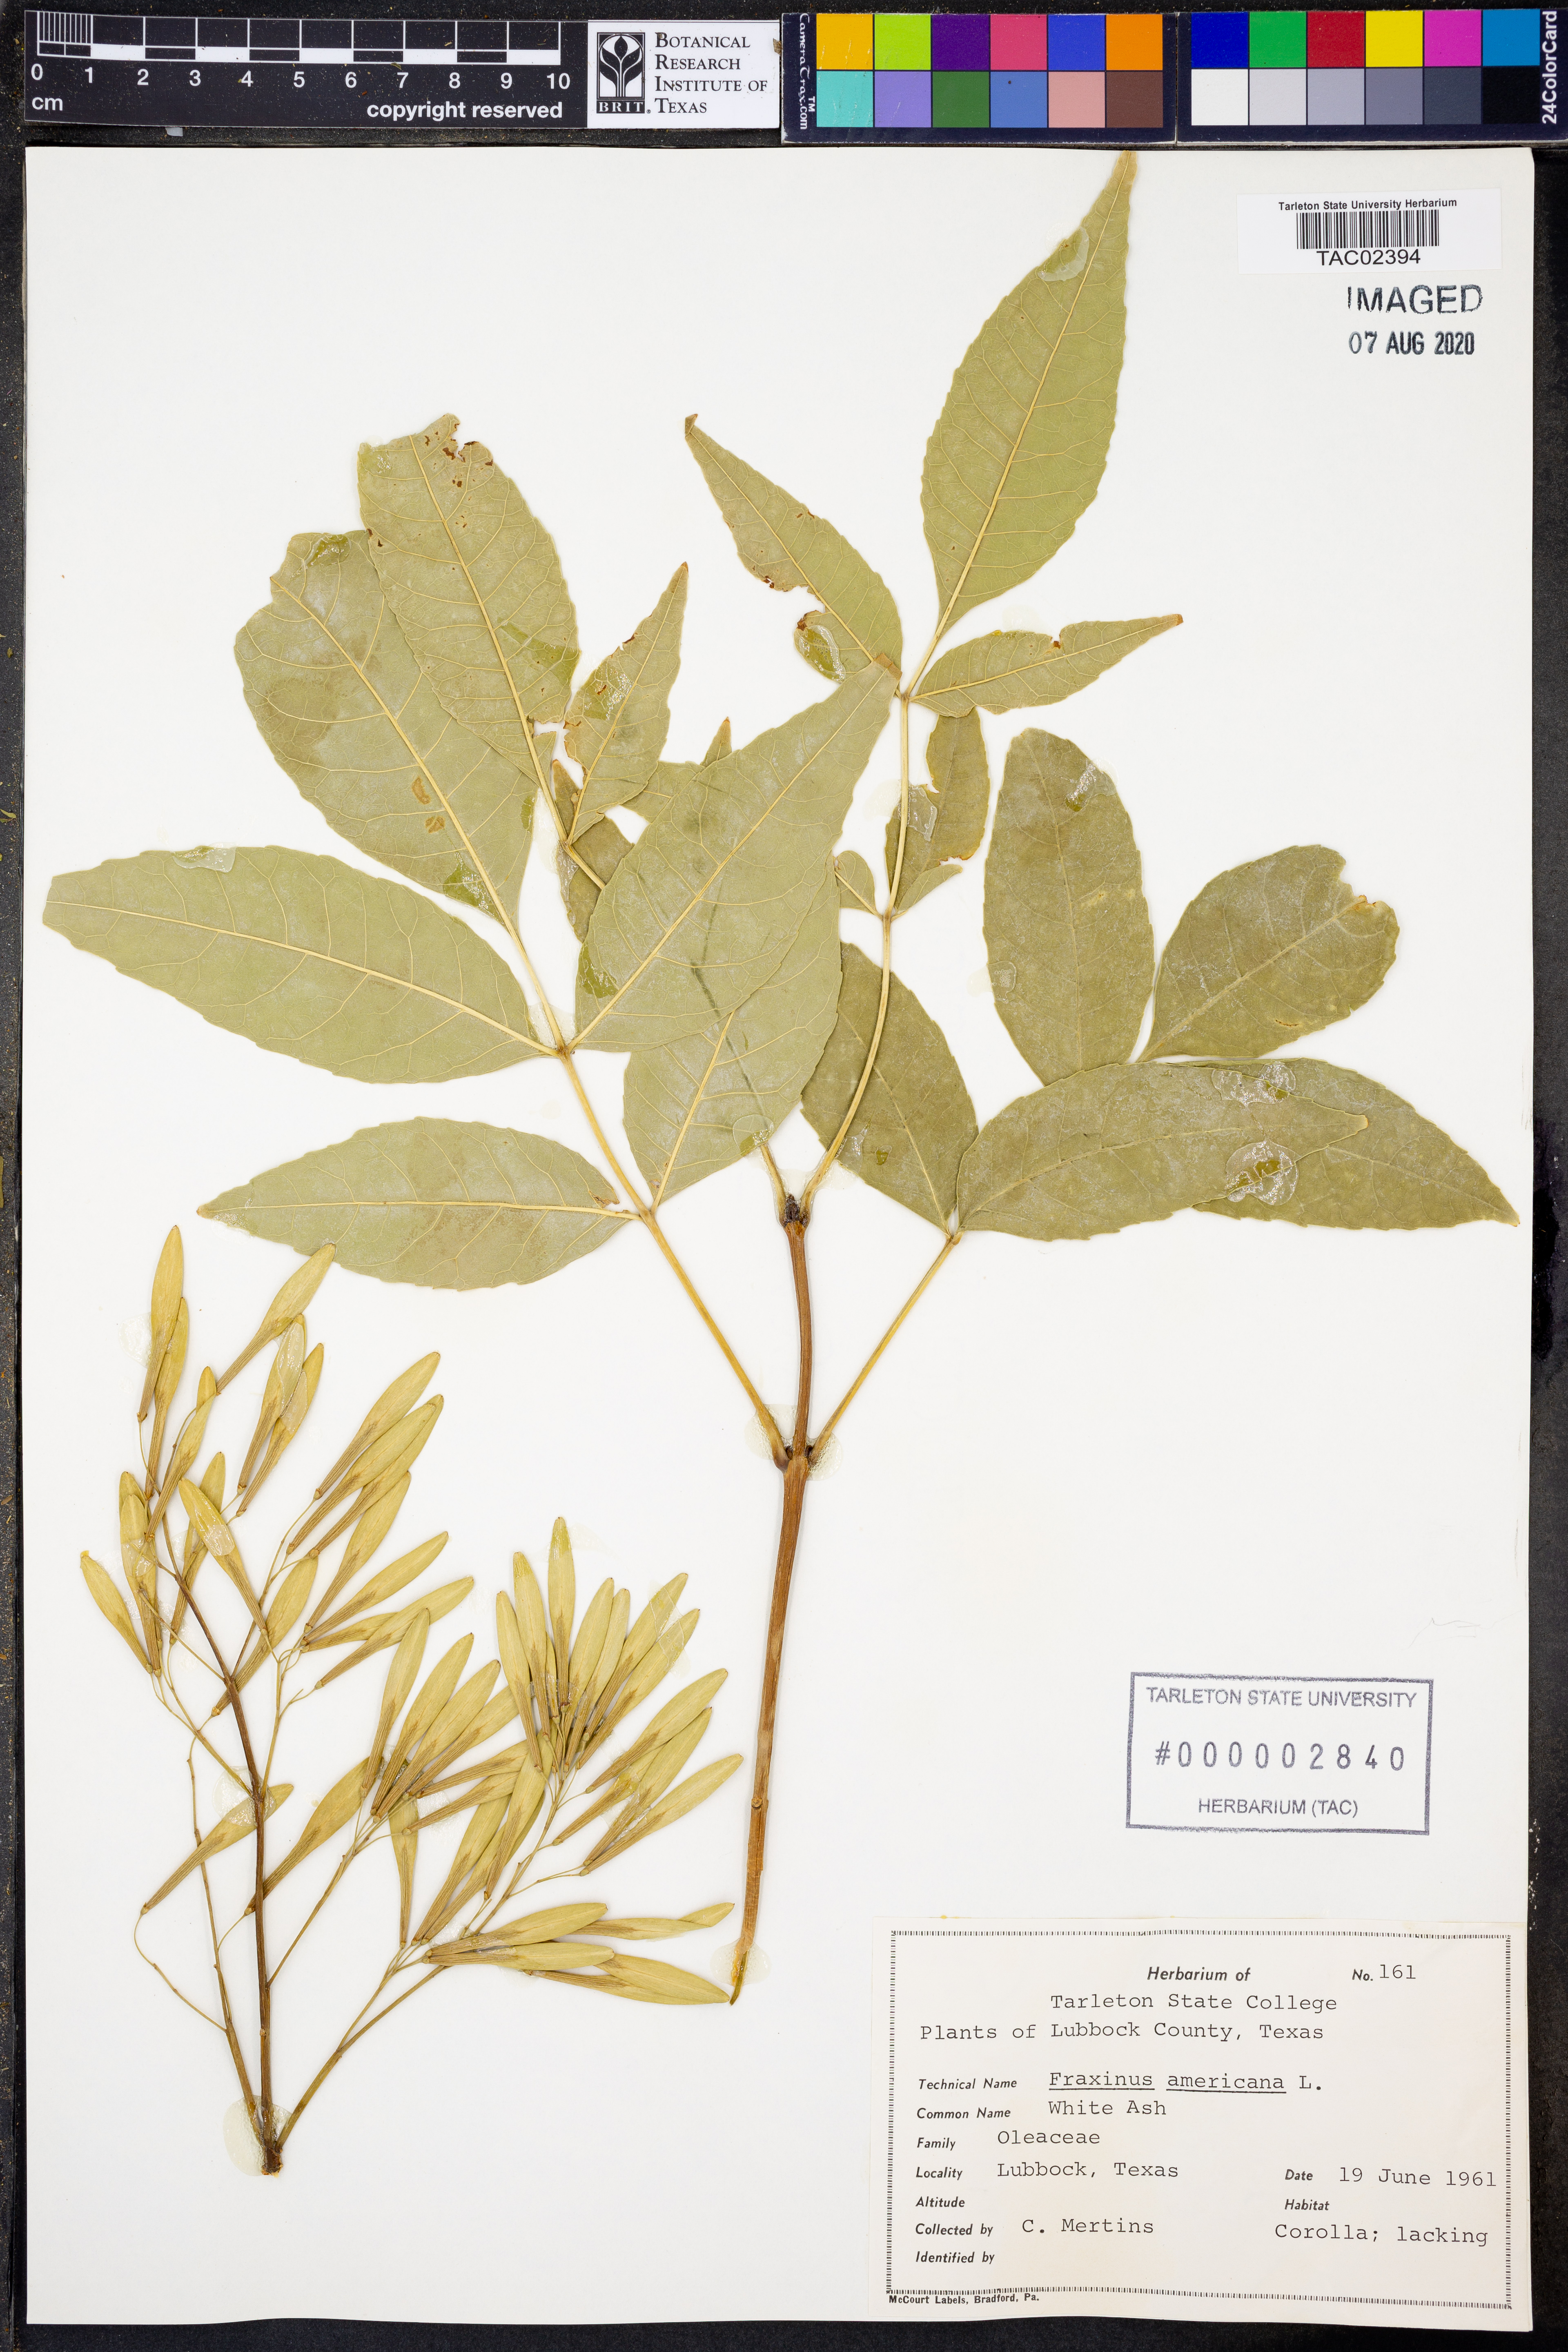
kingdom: Plantae
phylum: Tracheophyta
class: Magnoliopsida
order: Lamiales
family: Oleaceae
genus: Fraxinus
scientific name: Fraxinus americana
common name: White ash
